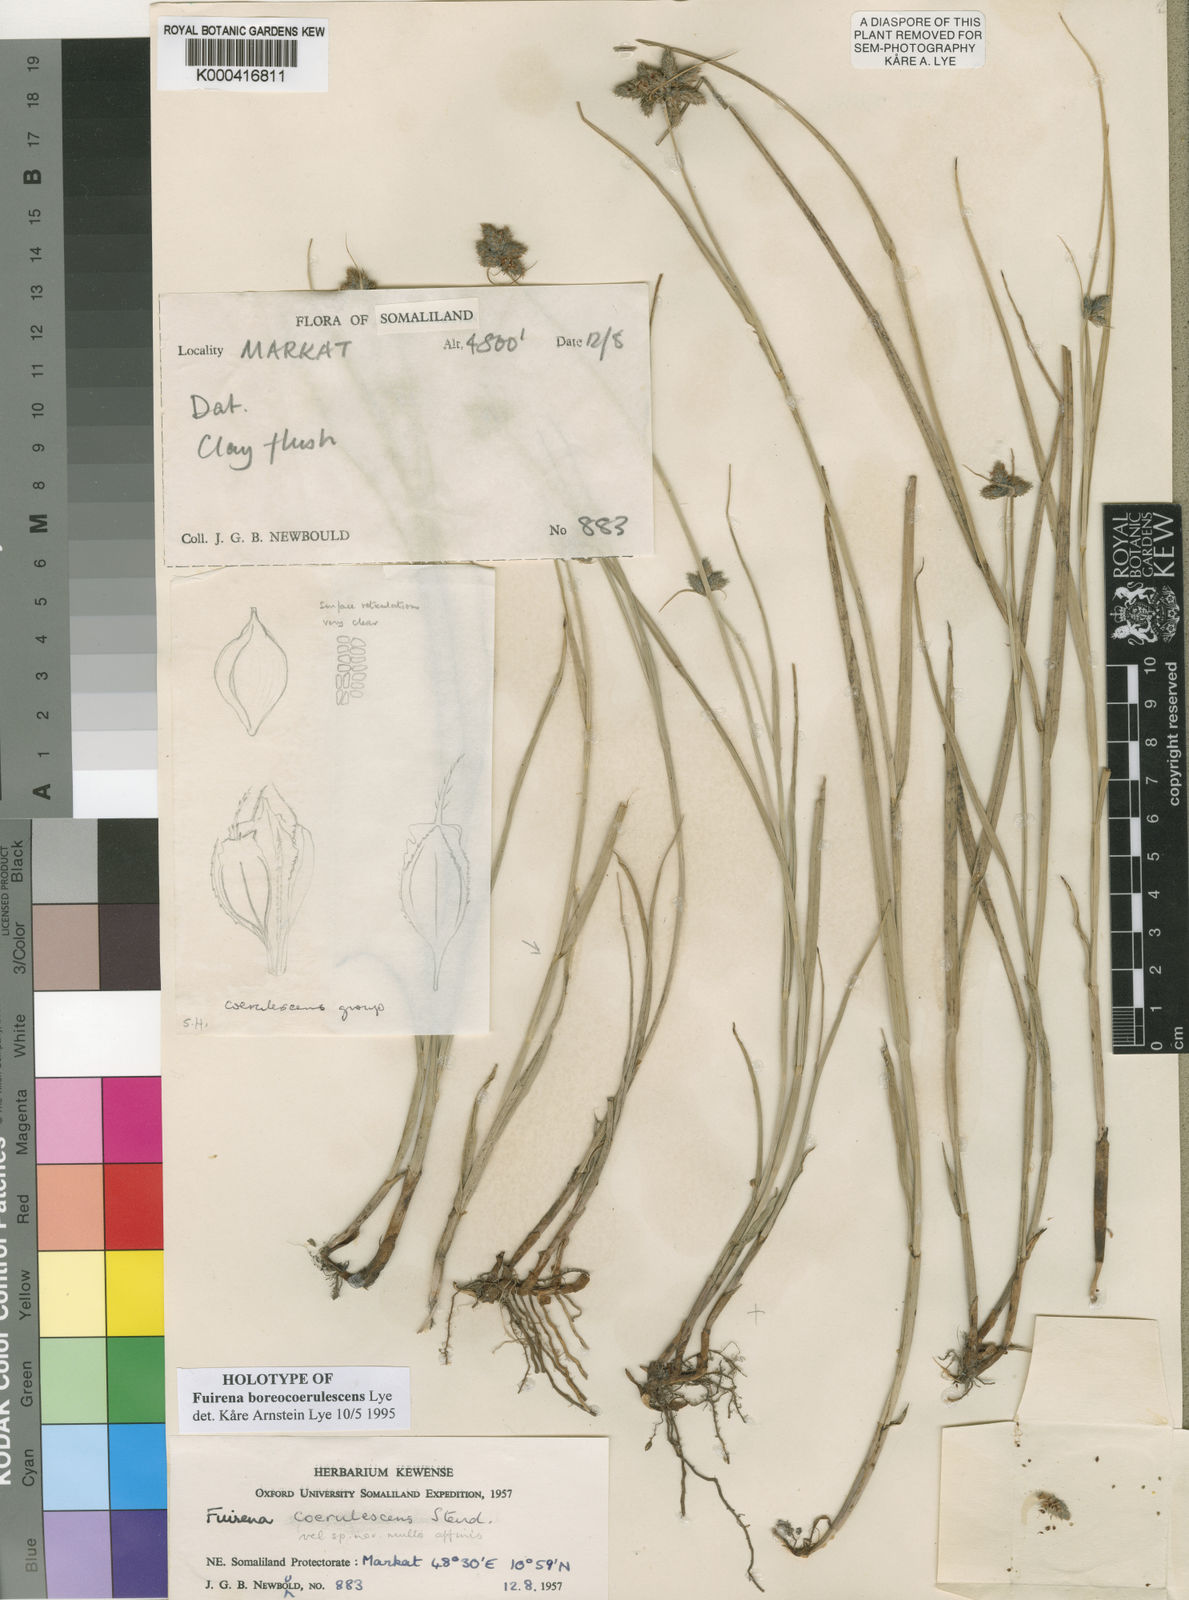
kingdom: Plantae
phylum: Tracheophyta
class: Liliopsida
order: Poales
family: Cyperaceae
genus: Fuirena
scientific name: Fuirena boreocoerulescens
